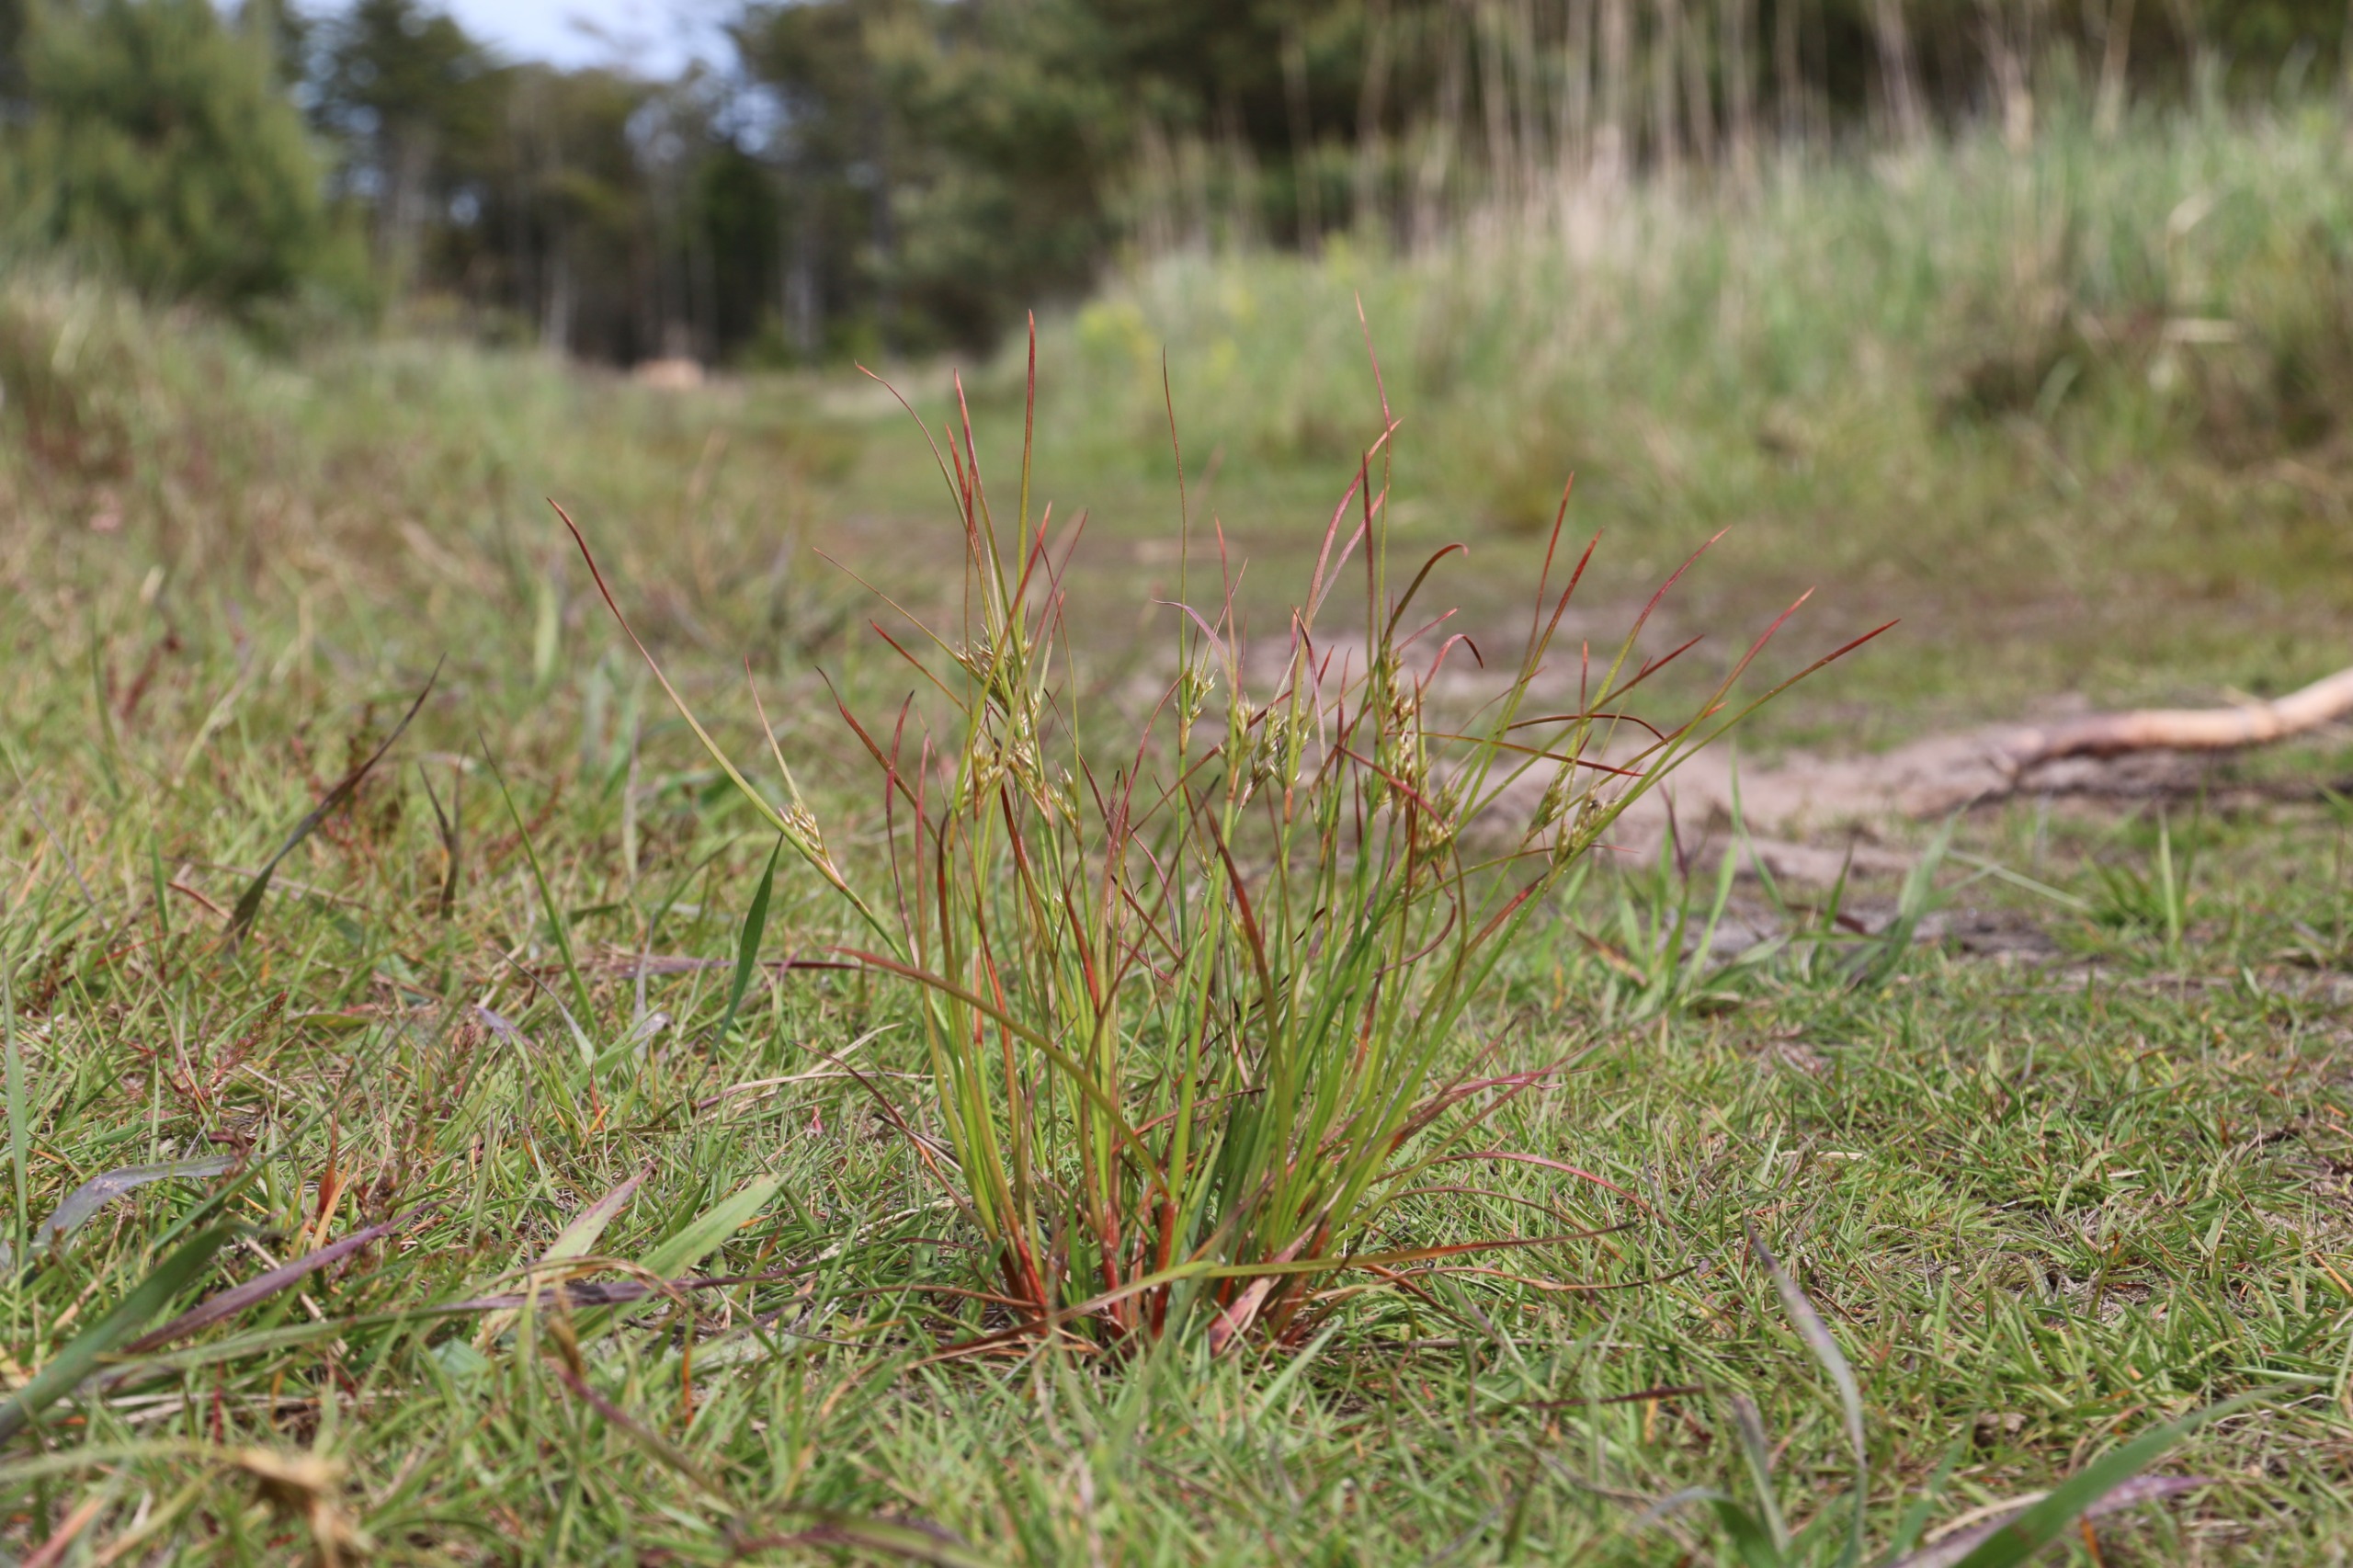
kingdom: Plantae
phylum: Tracheophyta
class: Liliopsida
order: Poales
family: Juncaceae
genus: Juncus
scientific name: Juncus tenuis
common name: Tue-siv
